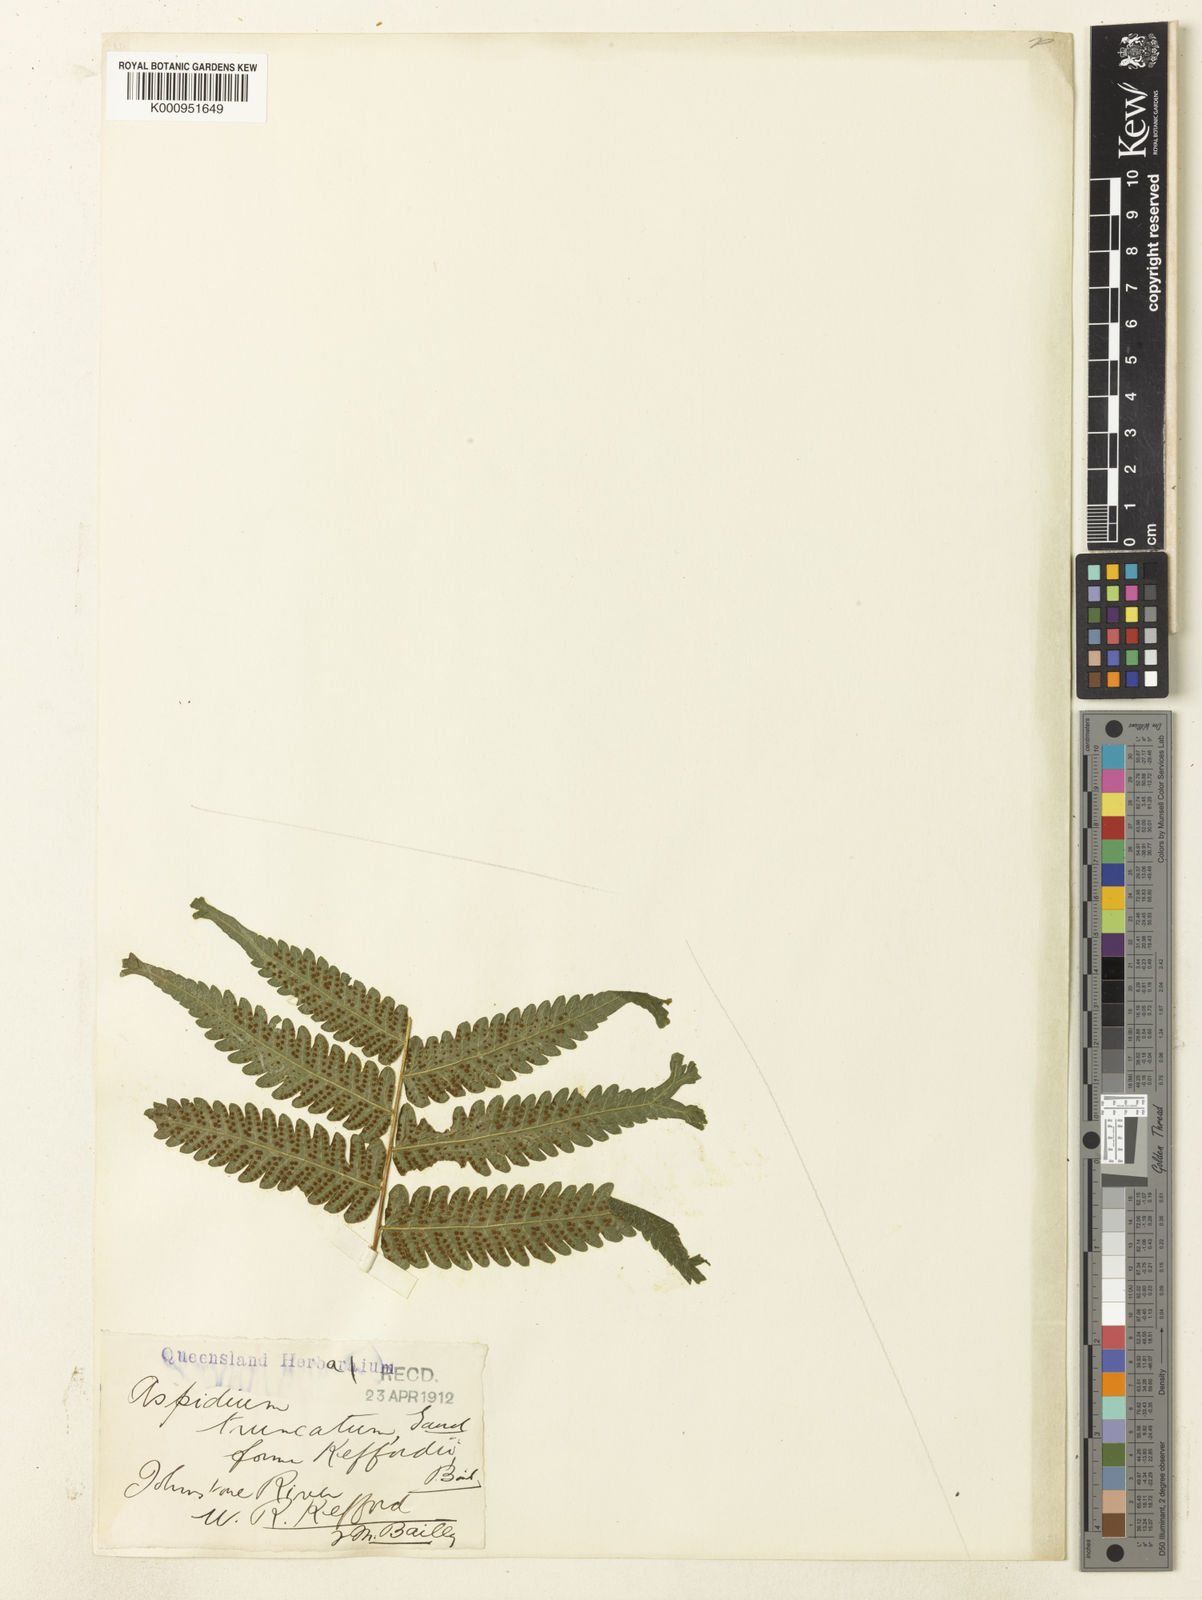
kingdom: Plantae
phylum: Tracheophyta
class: Polypodiopsida
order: Polypodiales
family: Thelypteridaceae
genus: Christella
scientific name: Christella dentata
